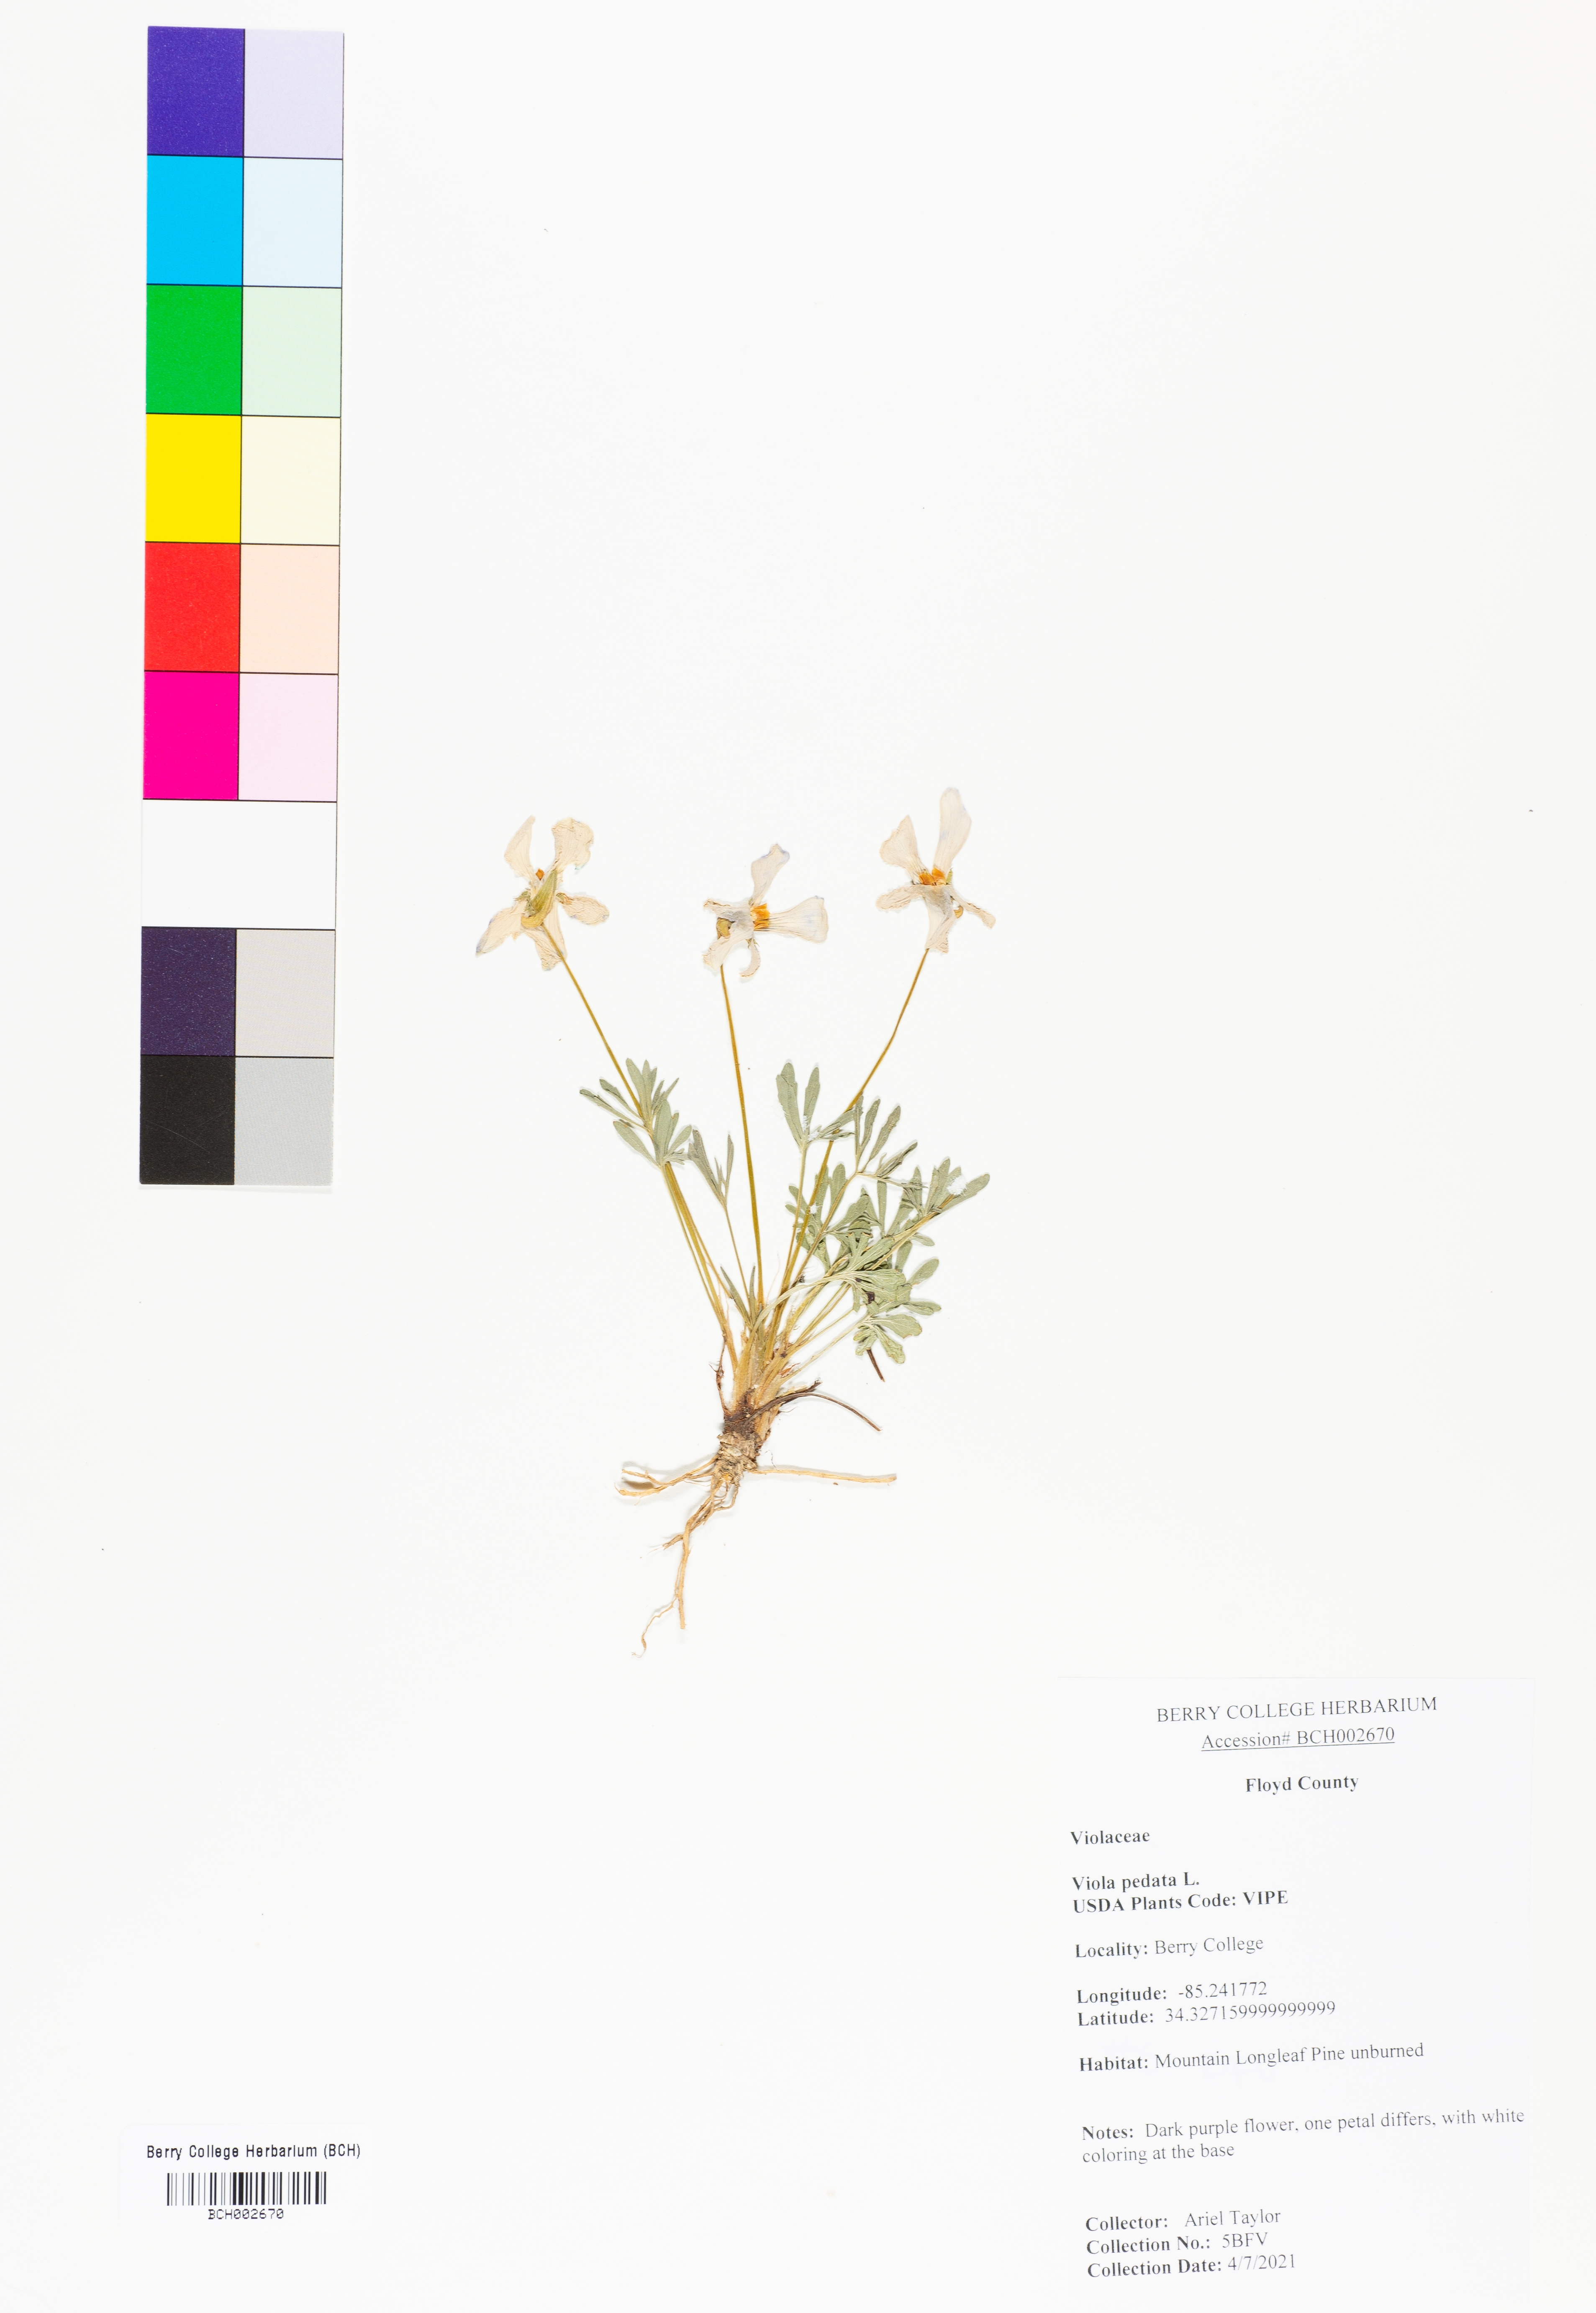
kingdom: Plantae
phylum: Tracheophyta
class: Magnoliopsida
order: Malpighiales
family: Violaceae
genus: Viola
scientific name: Viola pedata
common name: Pansy violet
